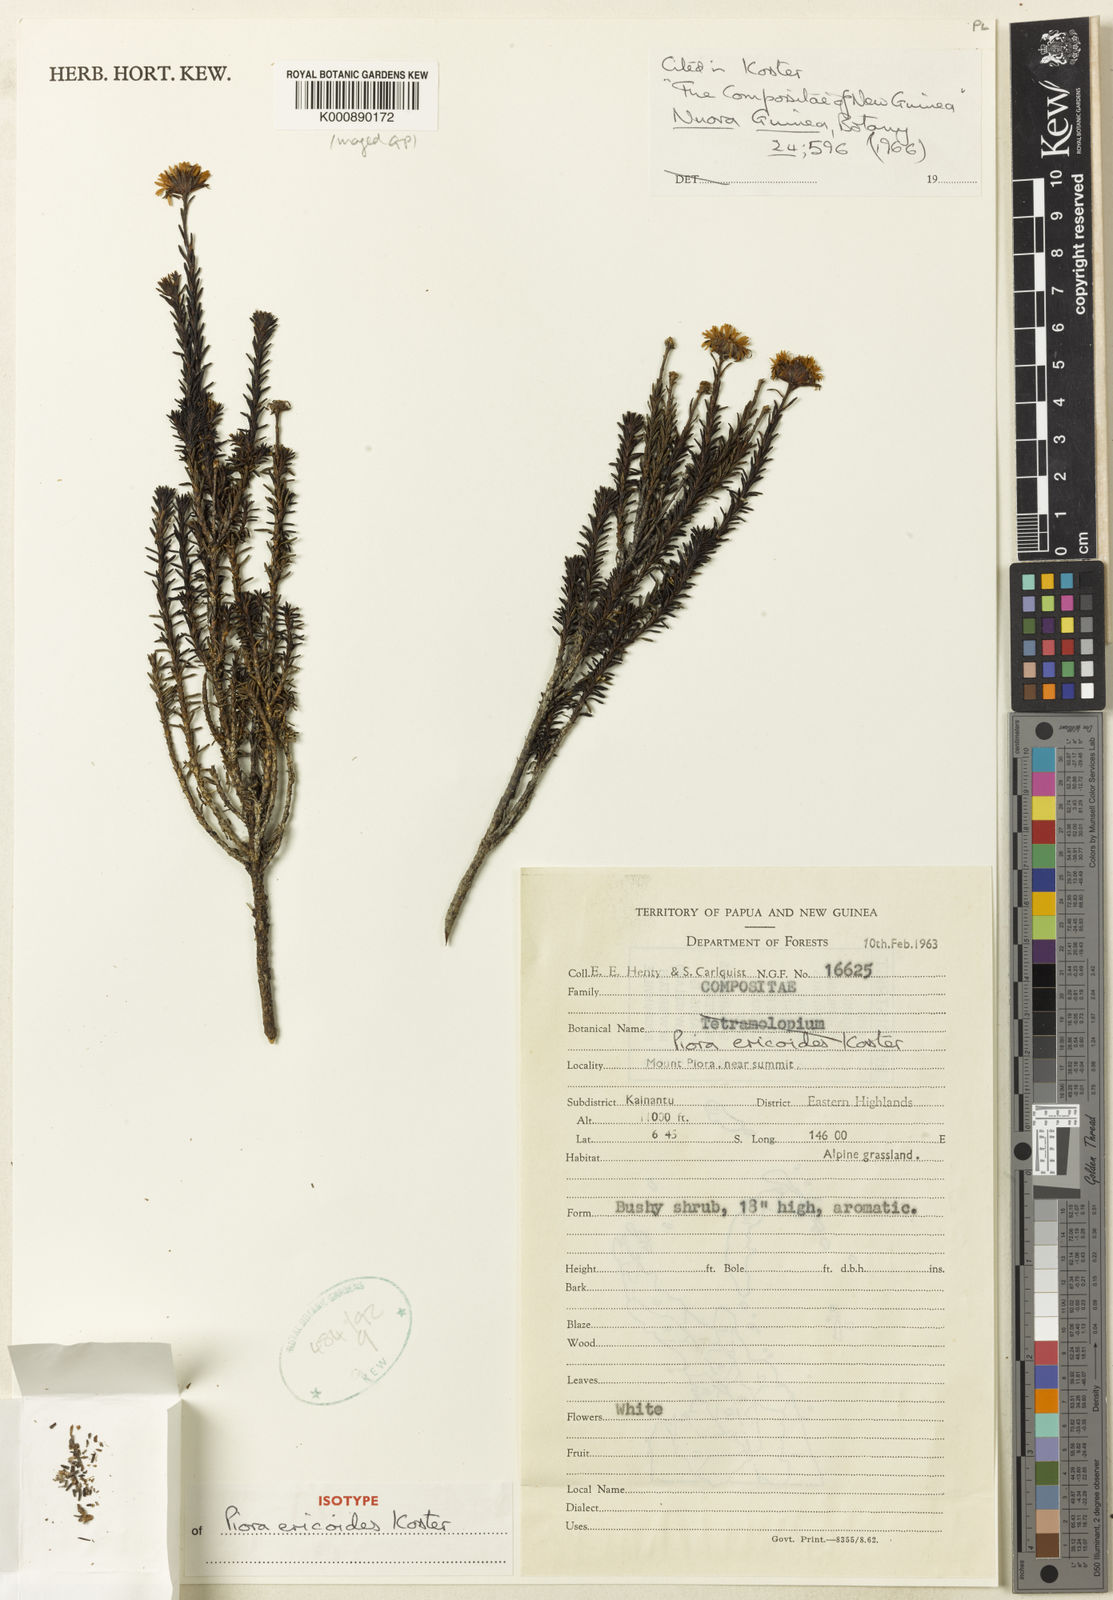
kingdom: Plantae
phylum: Tracheophyta
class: Magnoliopsida
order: Asterales
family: Asteraceae
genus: Piora
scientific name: Piora ericoides
